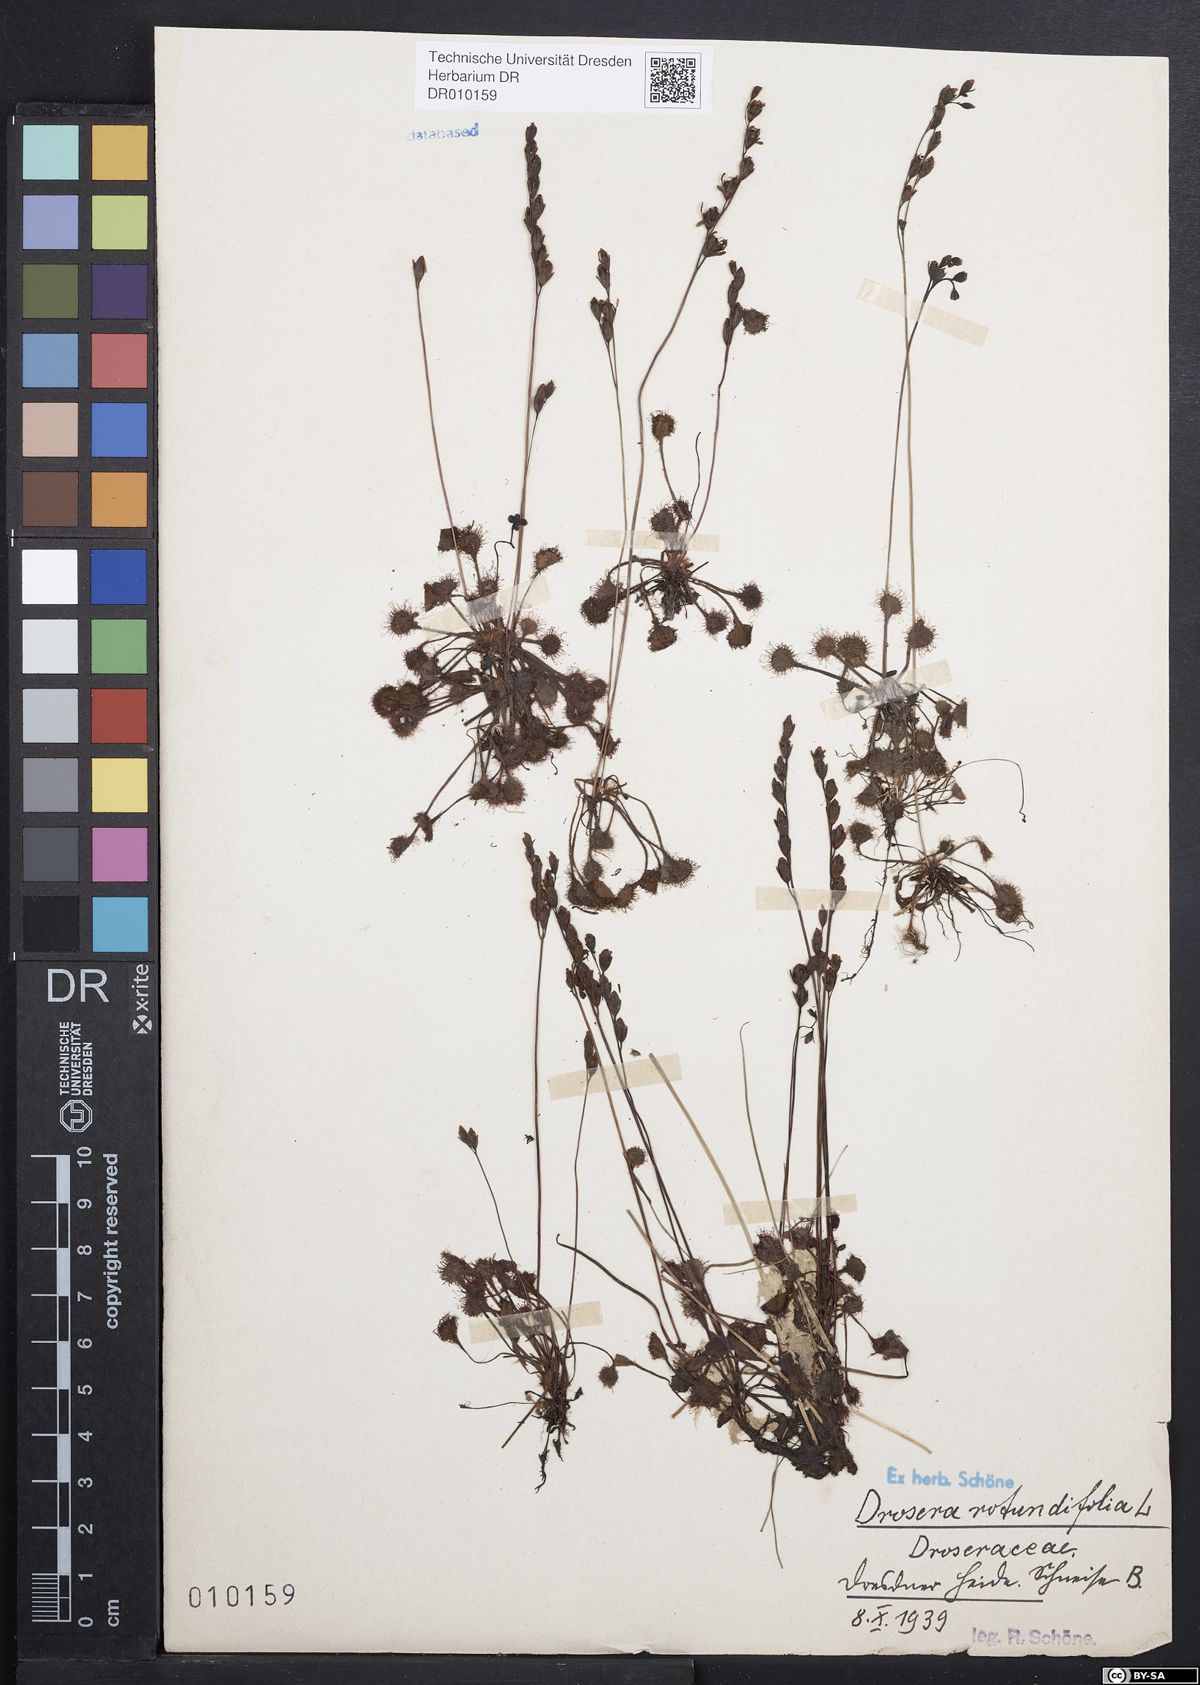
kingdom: Plantae
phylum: Tracheophyta
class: Magnoliopsida
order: Caryophyllales
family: Droseraceae
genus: Drosera
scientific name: Drosera rotundifolia
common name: Round-leaved sundew
